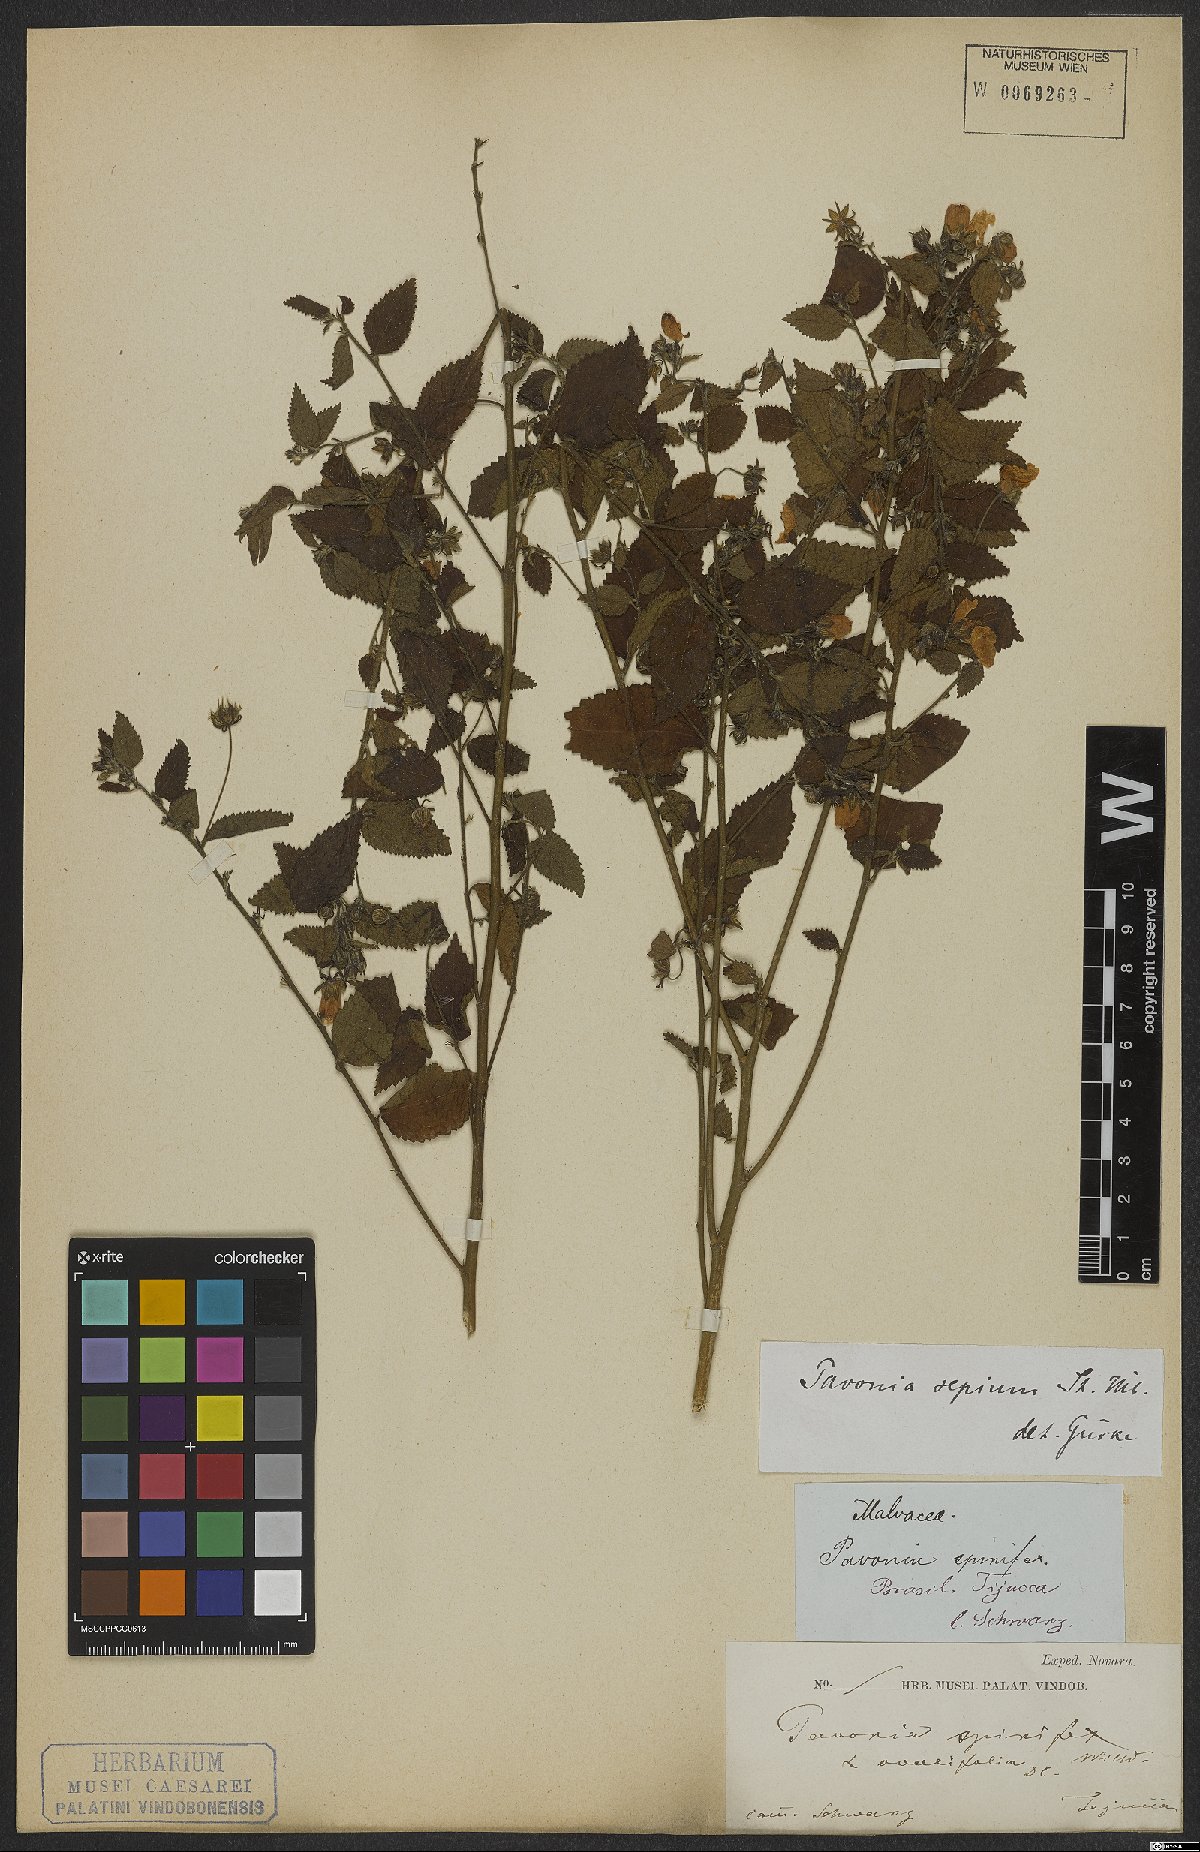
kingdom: Plantae
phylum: Tracheophyta
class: Magnoliopsida
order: Malvales
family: Malvaceae
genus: Pavonia
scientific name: Pavonia sepium
